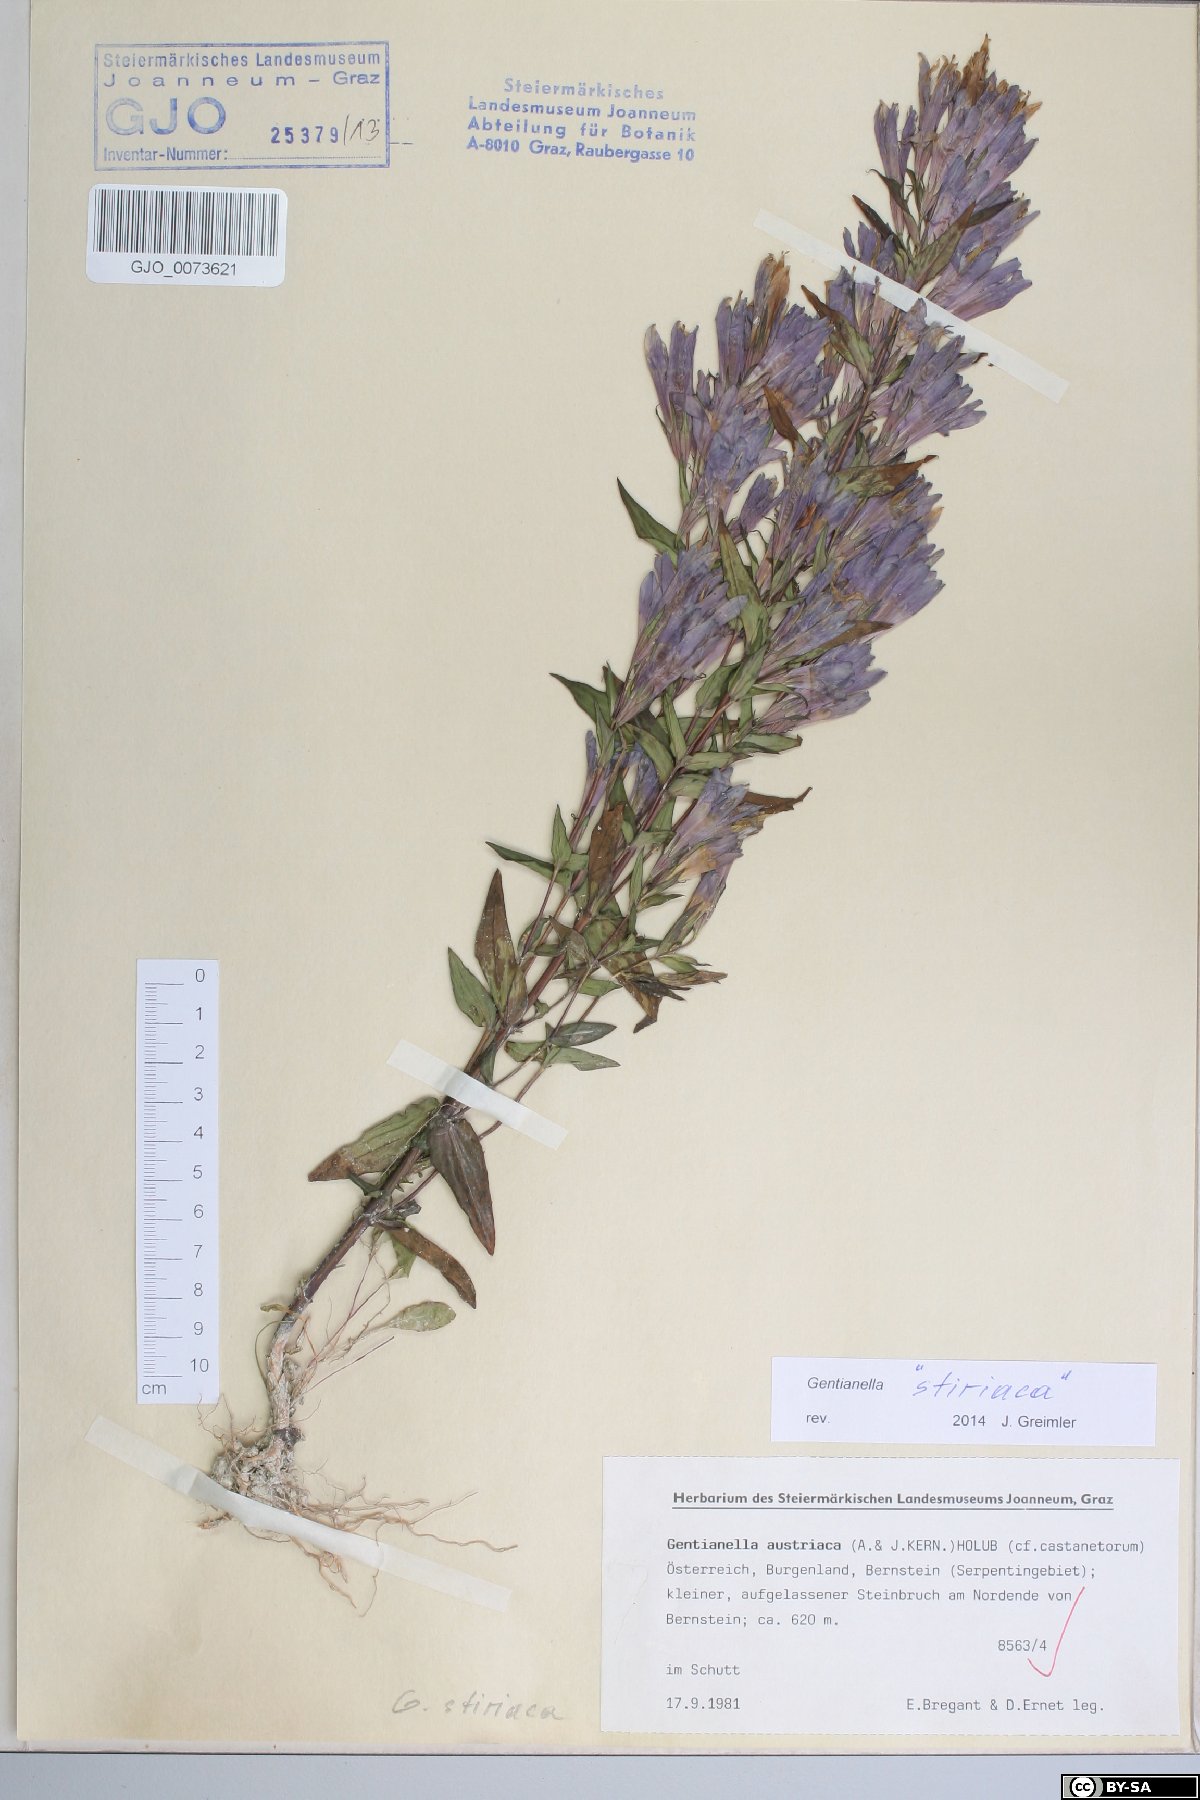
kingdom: Plantae
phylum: Tracheophyta
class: Magnoliopsida
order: Gentianales
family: Gentianaceae
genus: Gentianella
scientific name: Gentianella styriaca
